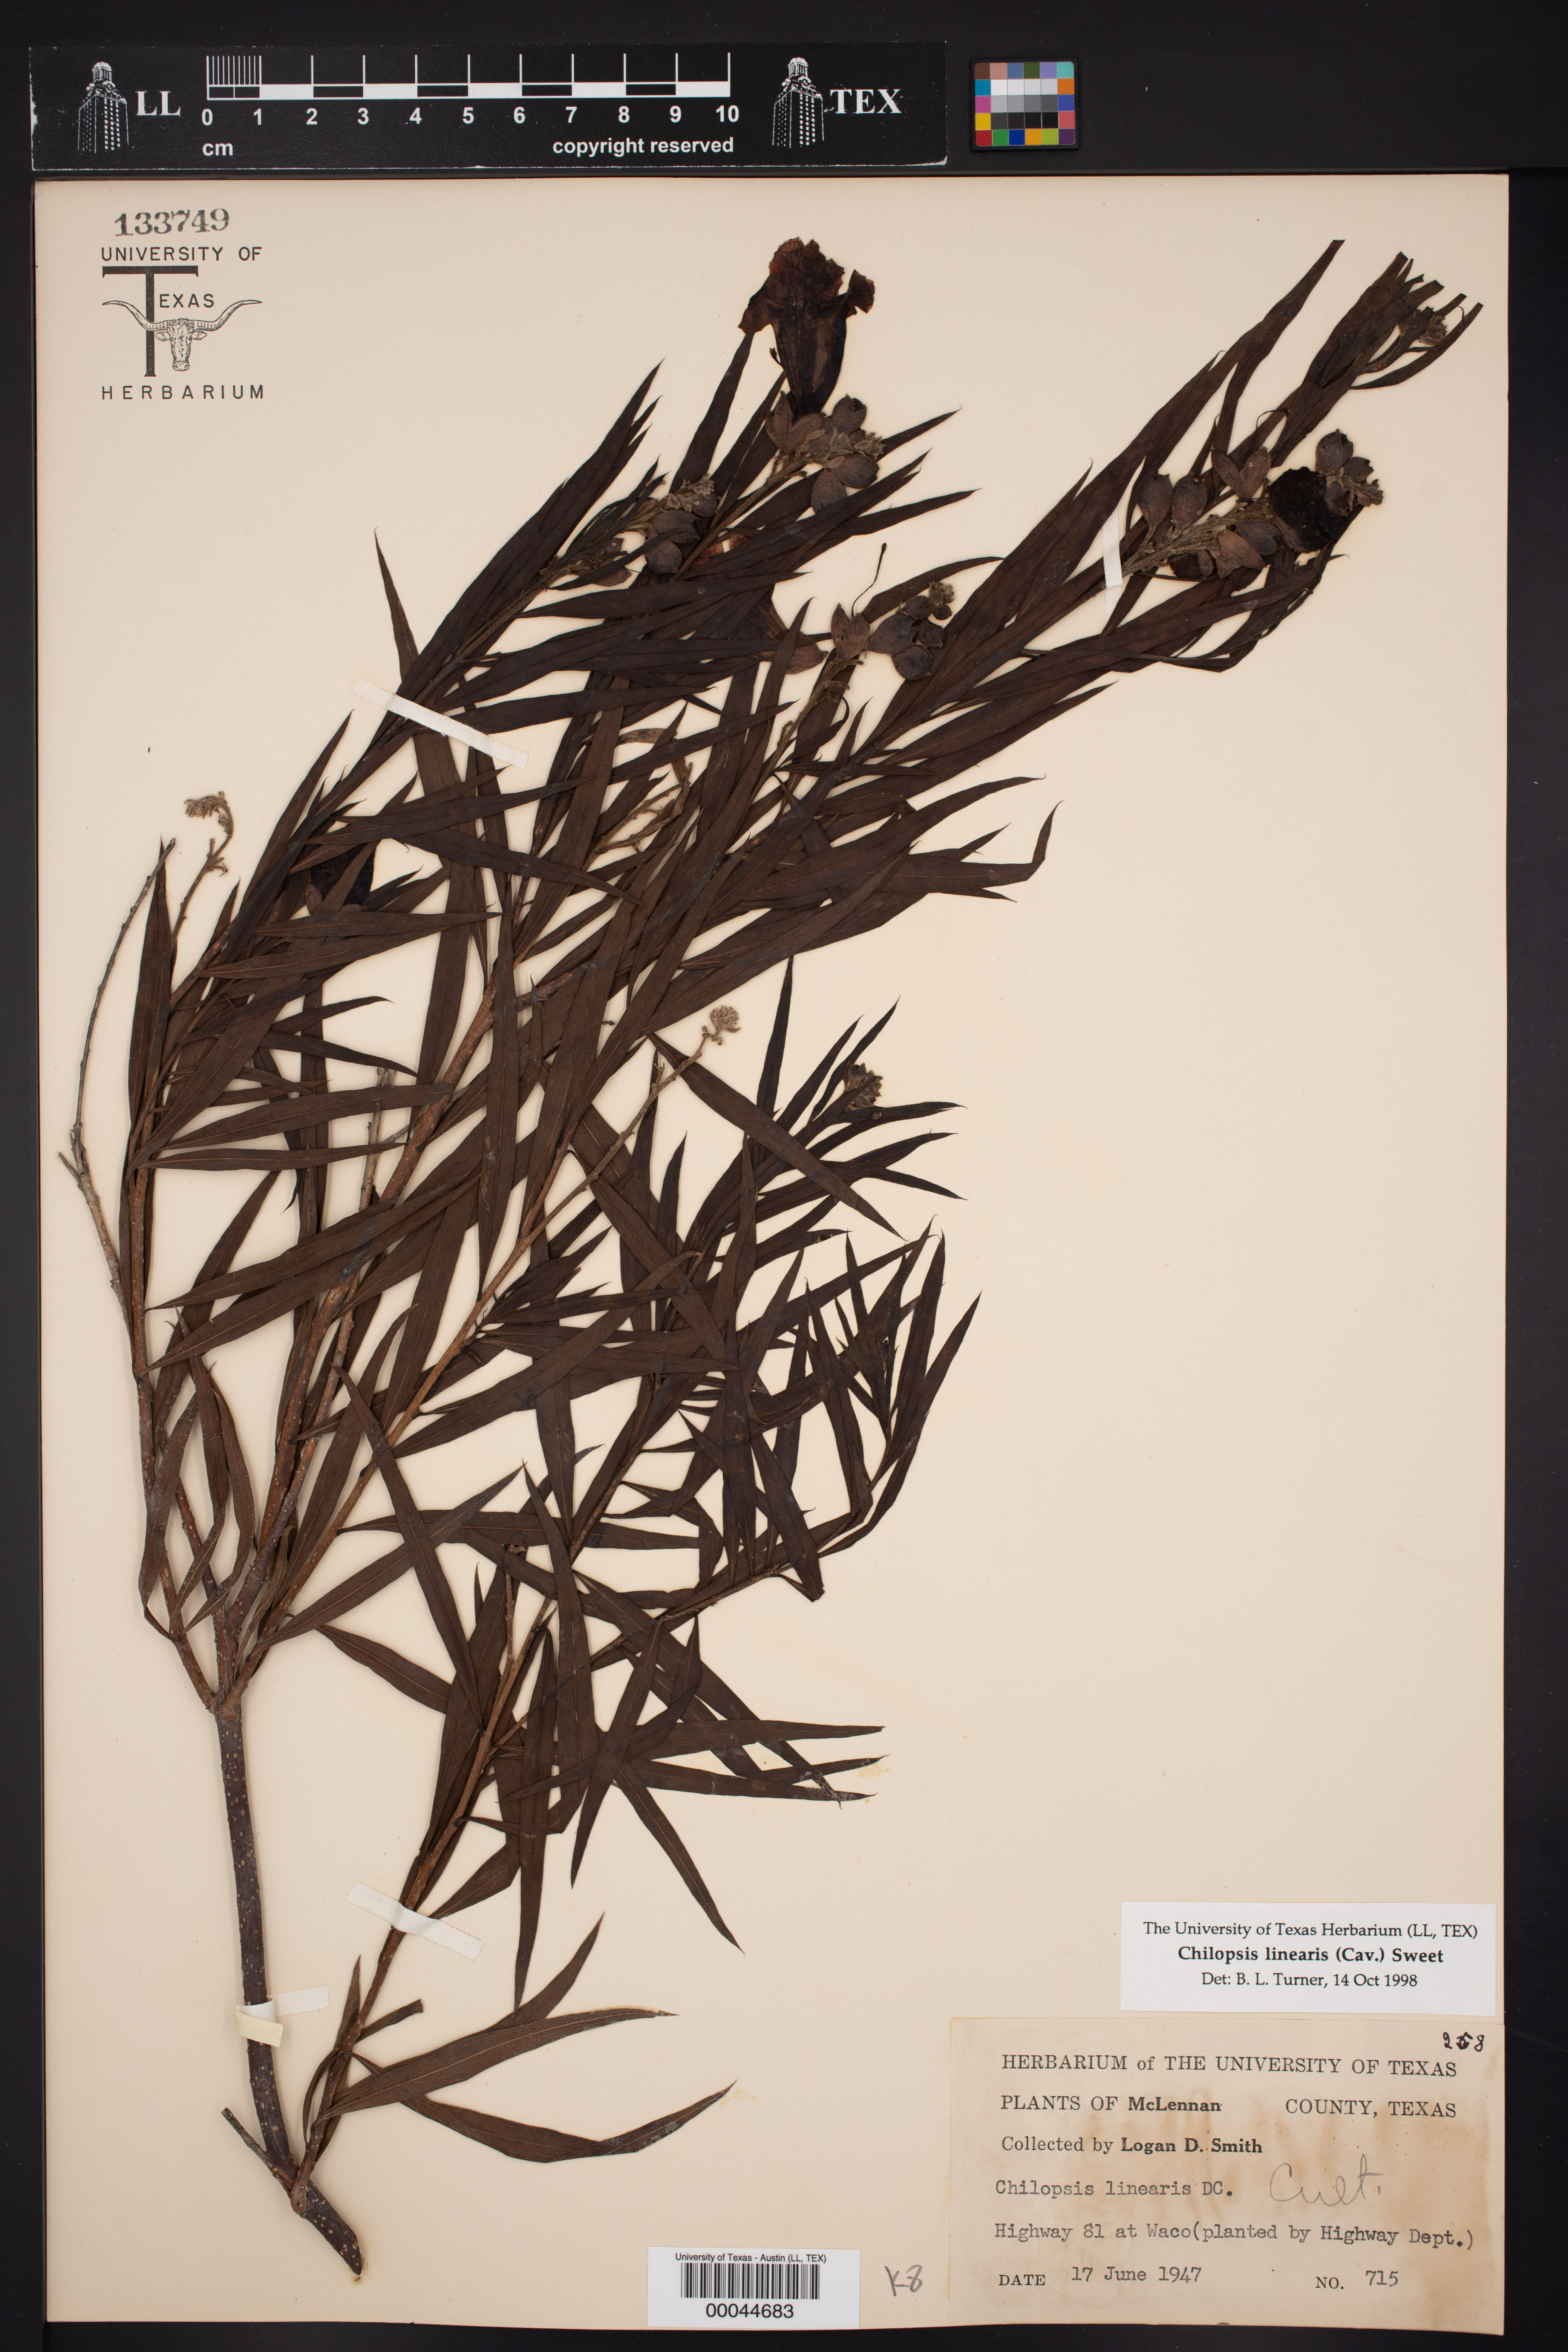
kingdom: Plantae
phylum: Tracheophyta
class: Magnoliopsida
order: Lamiales
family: Bignoniaceae
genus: Chilopsis
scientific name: Chilopsis linearis
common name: Desert-willow
